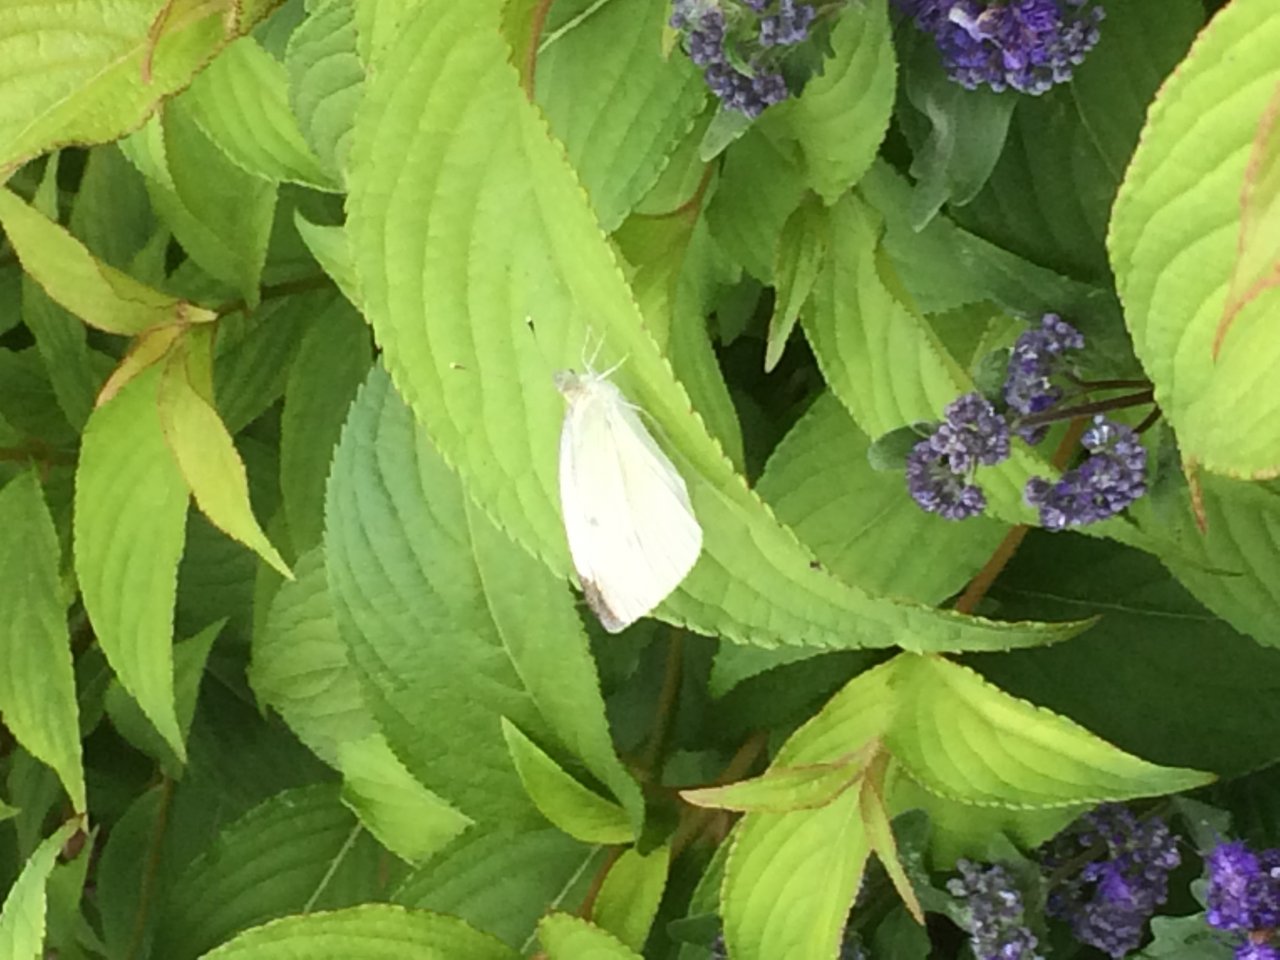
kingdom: Animalia
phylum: Arthropoda
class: Insecta
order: Lepidoptera
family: Pieridae
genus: Pieris
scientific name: Pieris rapae
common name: Cabbage White
